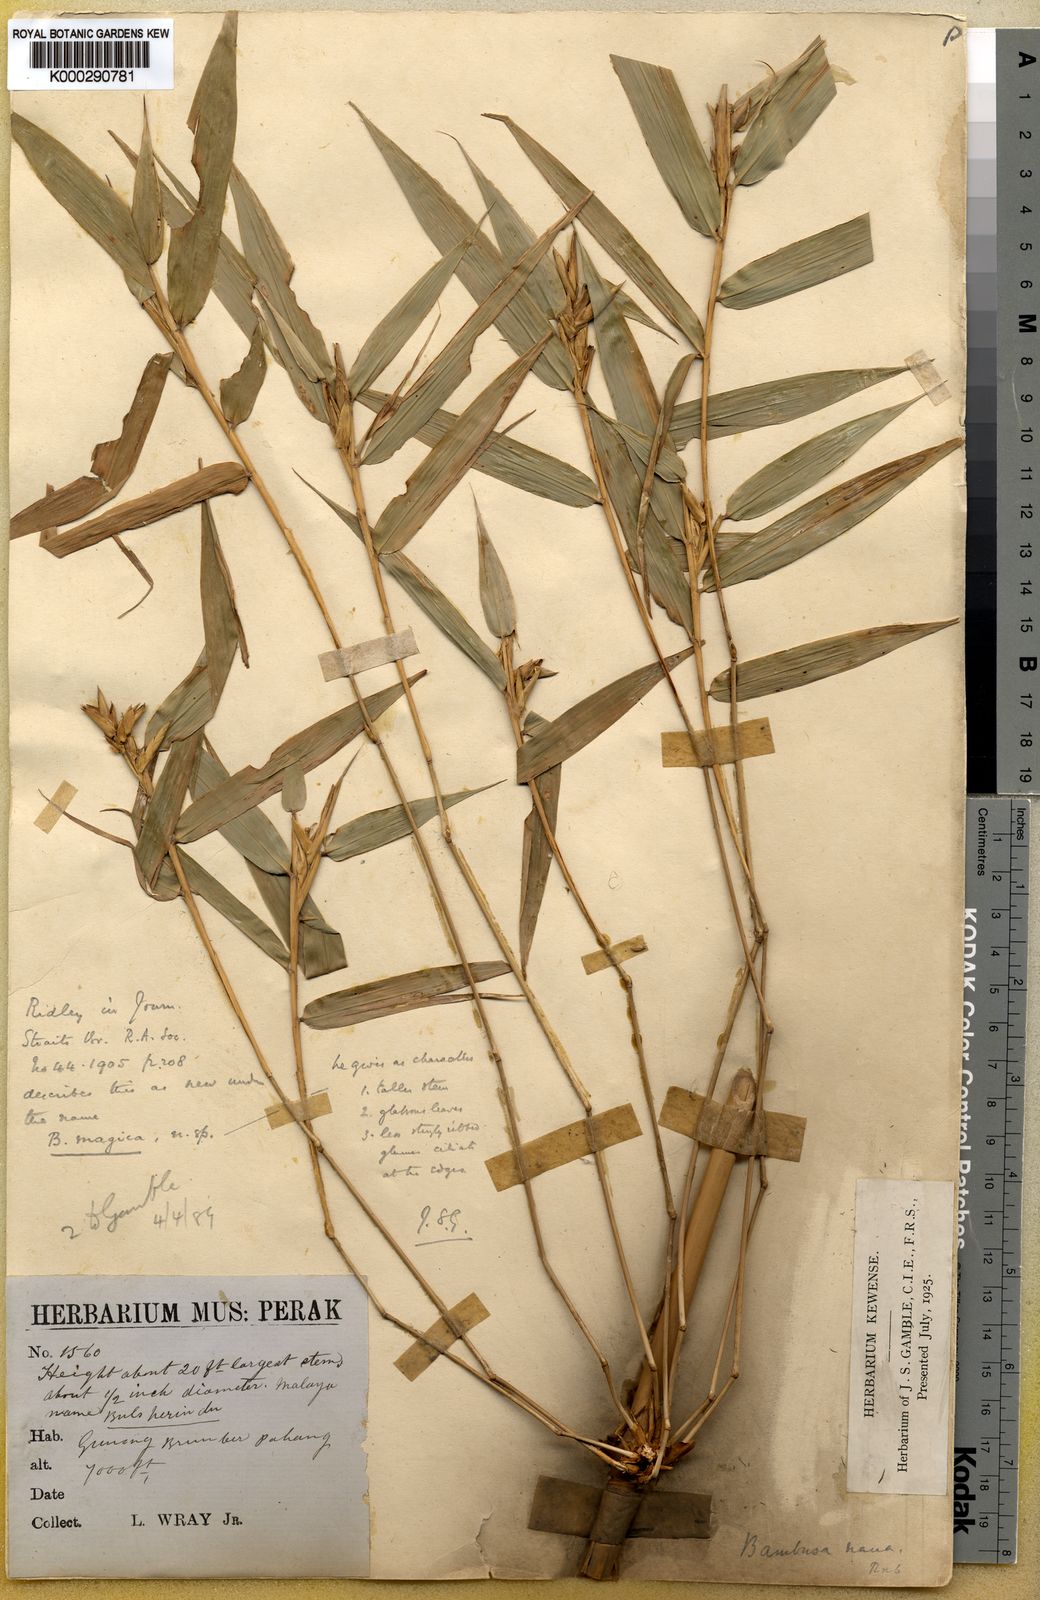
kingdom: Plantae
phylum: Tracheophyta
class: Liliopsida
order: Poales
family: Poaceae
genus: Holttumochloa
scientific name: Holttumochloa magica
